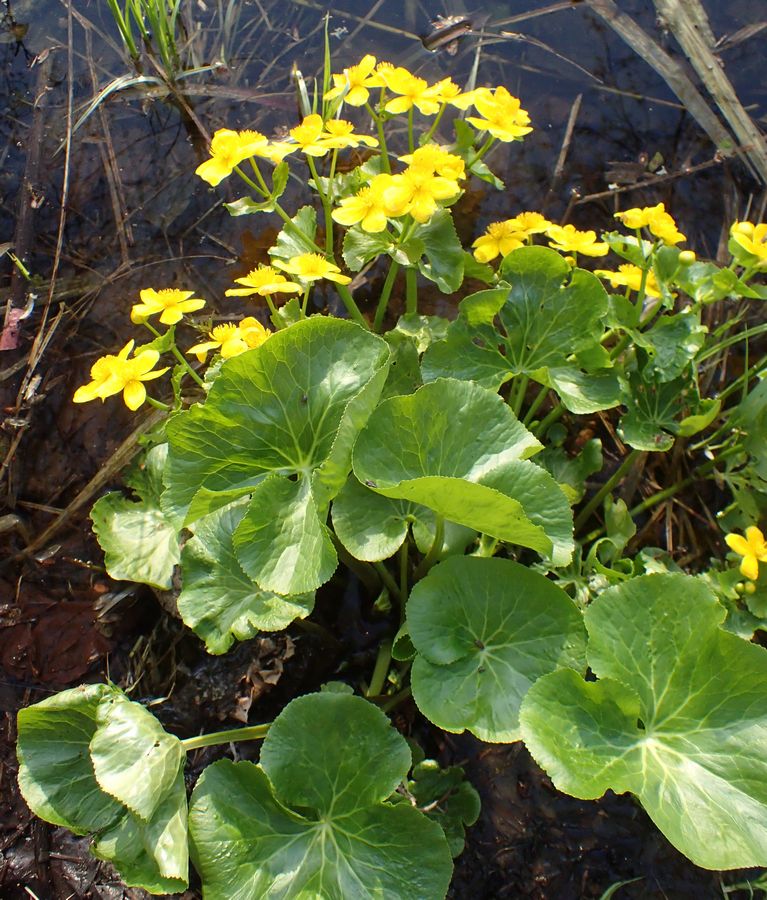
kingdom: Plantae
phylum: Tracheophyta
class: Magnoliopsida
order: Ranunculales
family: Ranunculaceae
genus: Caltha
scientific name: Caltha palustris
